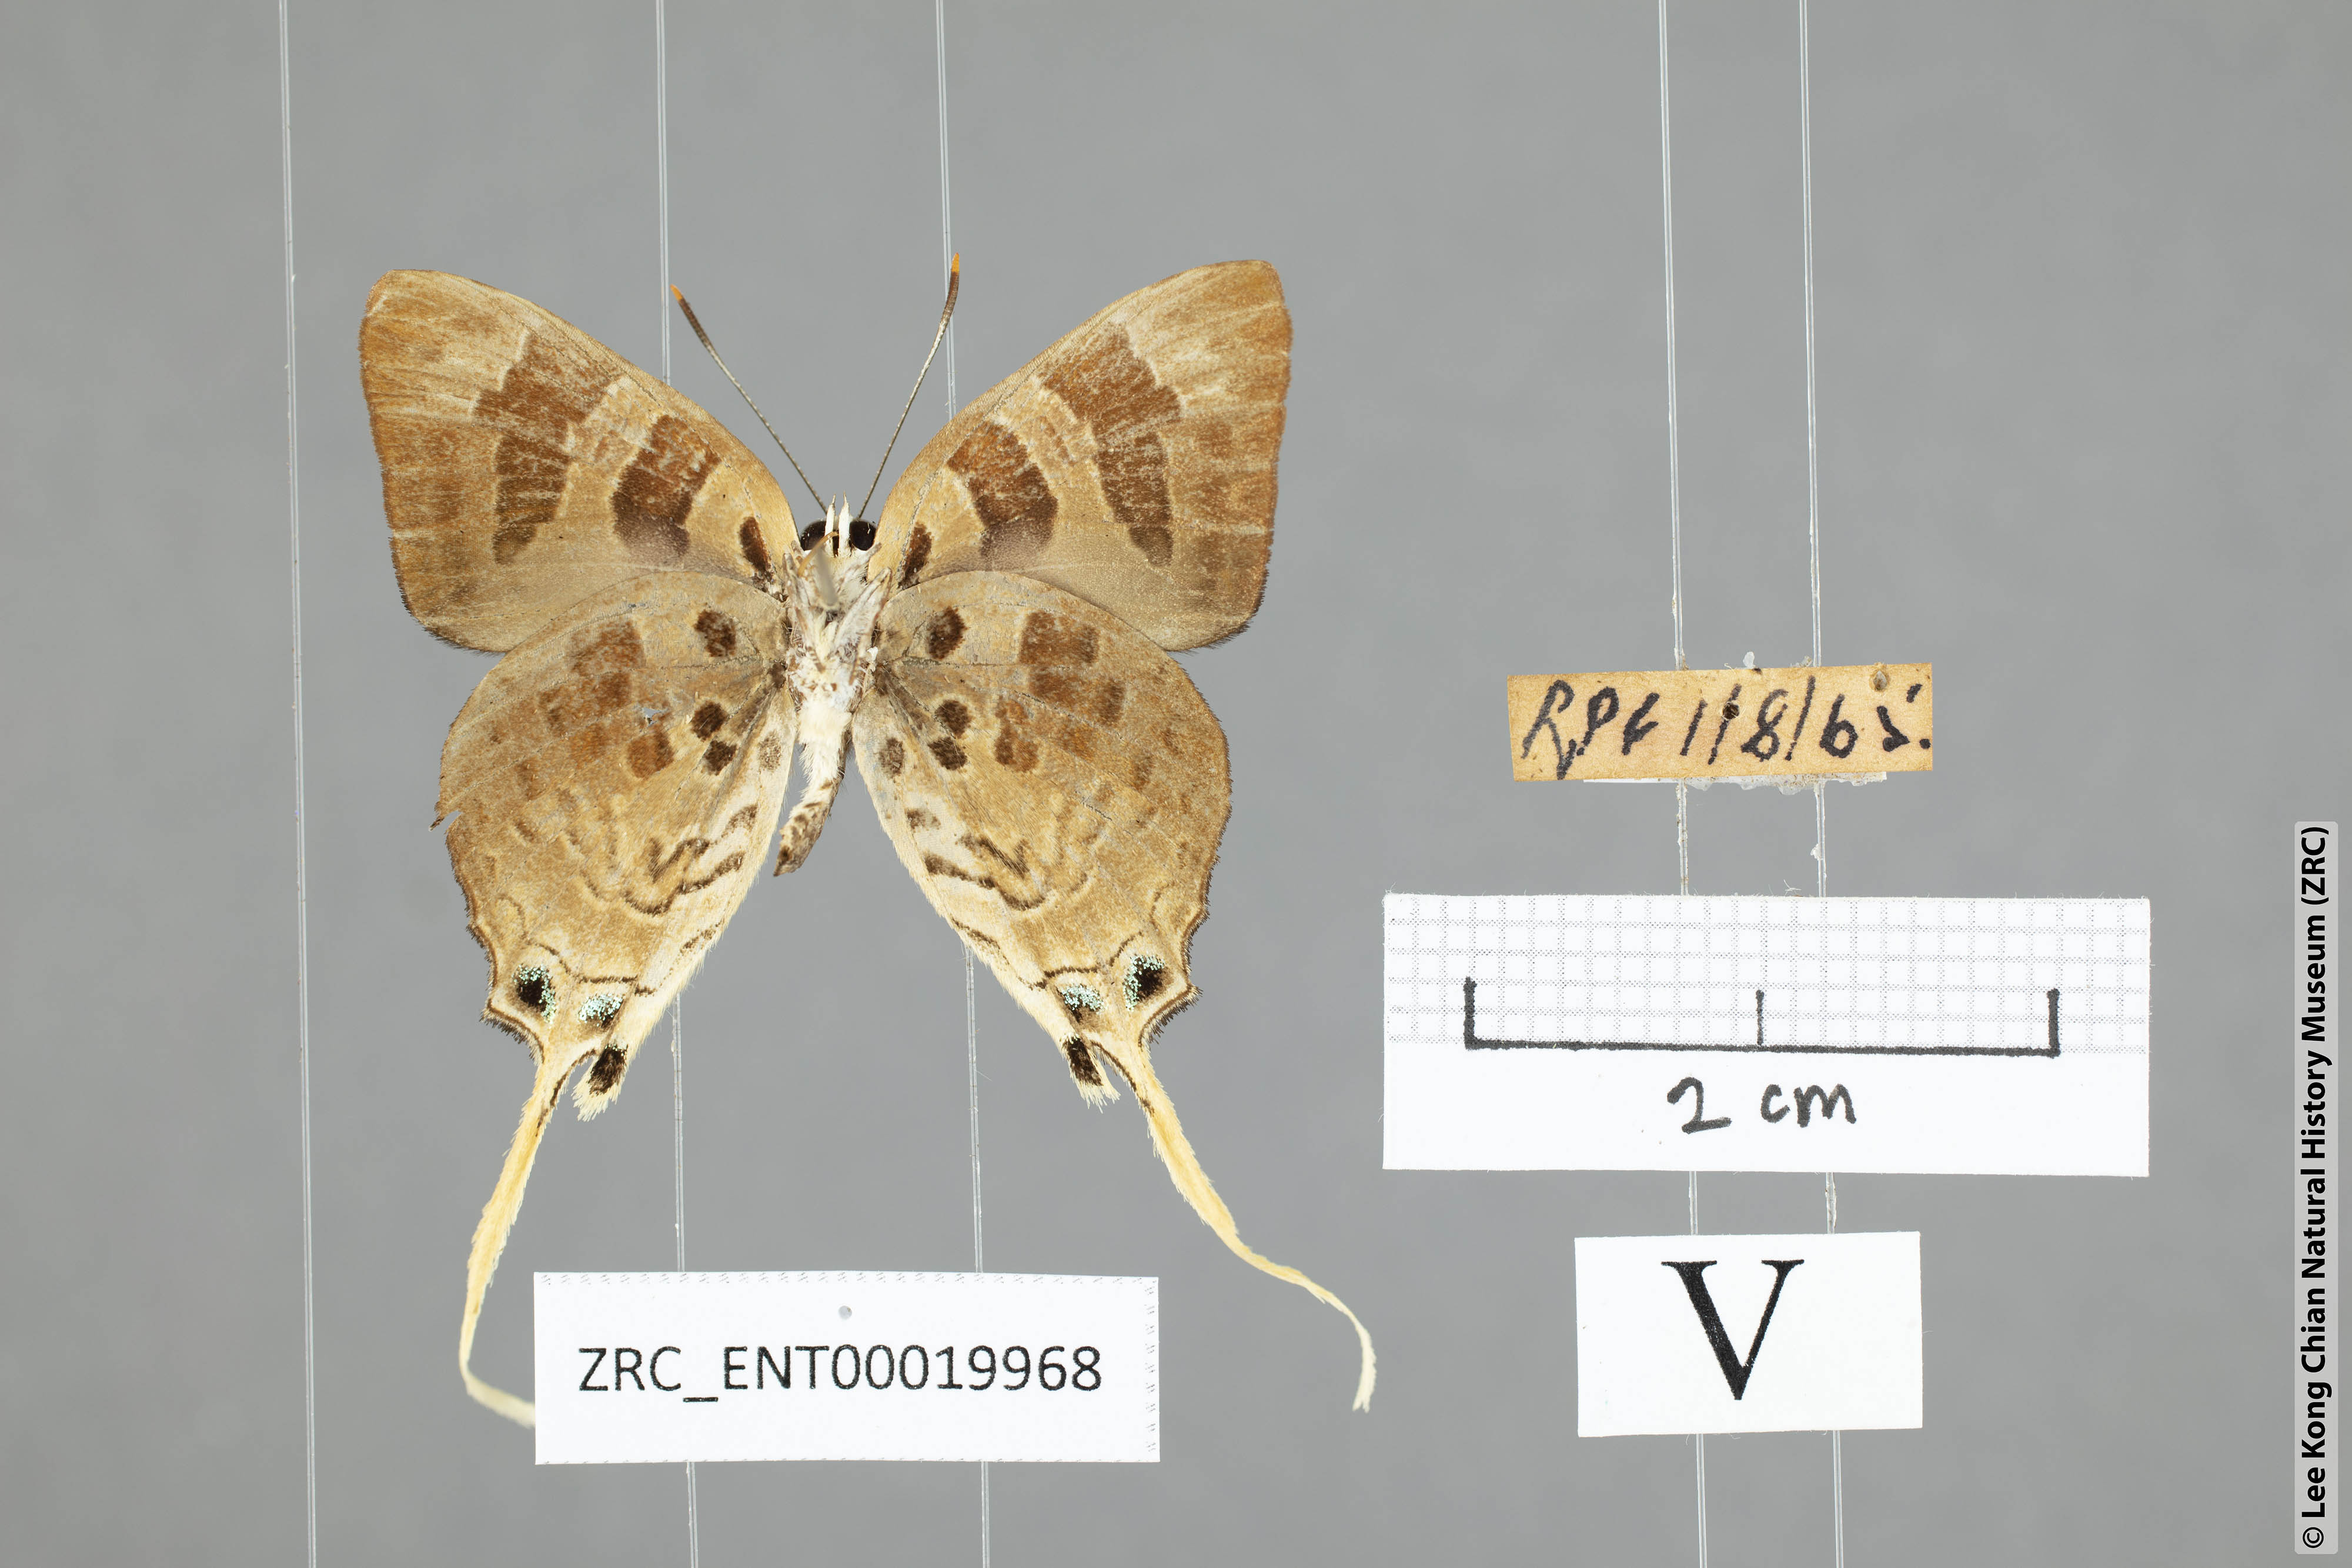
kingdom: Animalia
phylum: Arthropoda
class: Insecta
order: Lepidoptera
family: Lycaenidae
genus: Bindahara
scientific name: Bindahara phocides
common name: Sword-tailed flash
